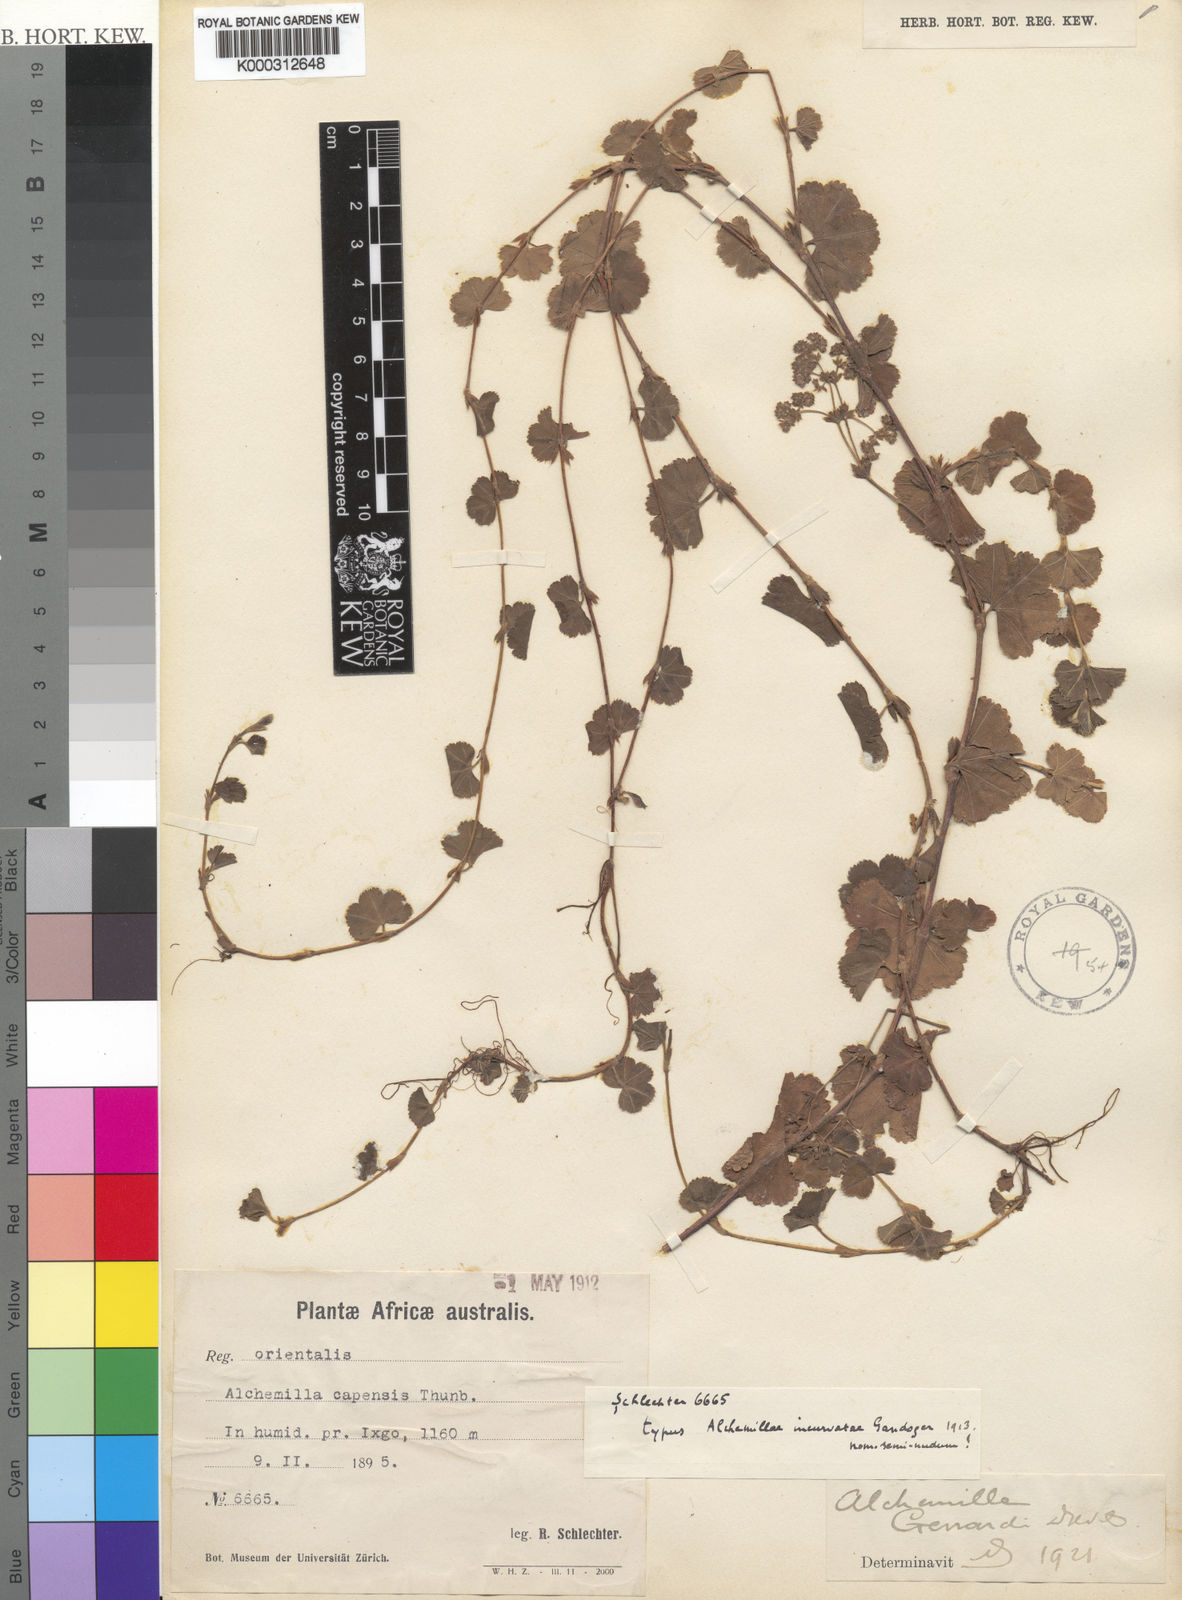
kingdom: Plantae
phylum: Tracheophyta
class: Magnoliopsida
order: Rosales
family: Rosaceae
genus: Alchemilla
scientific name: Alchemilla incurvata
